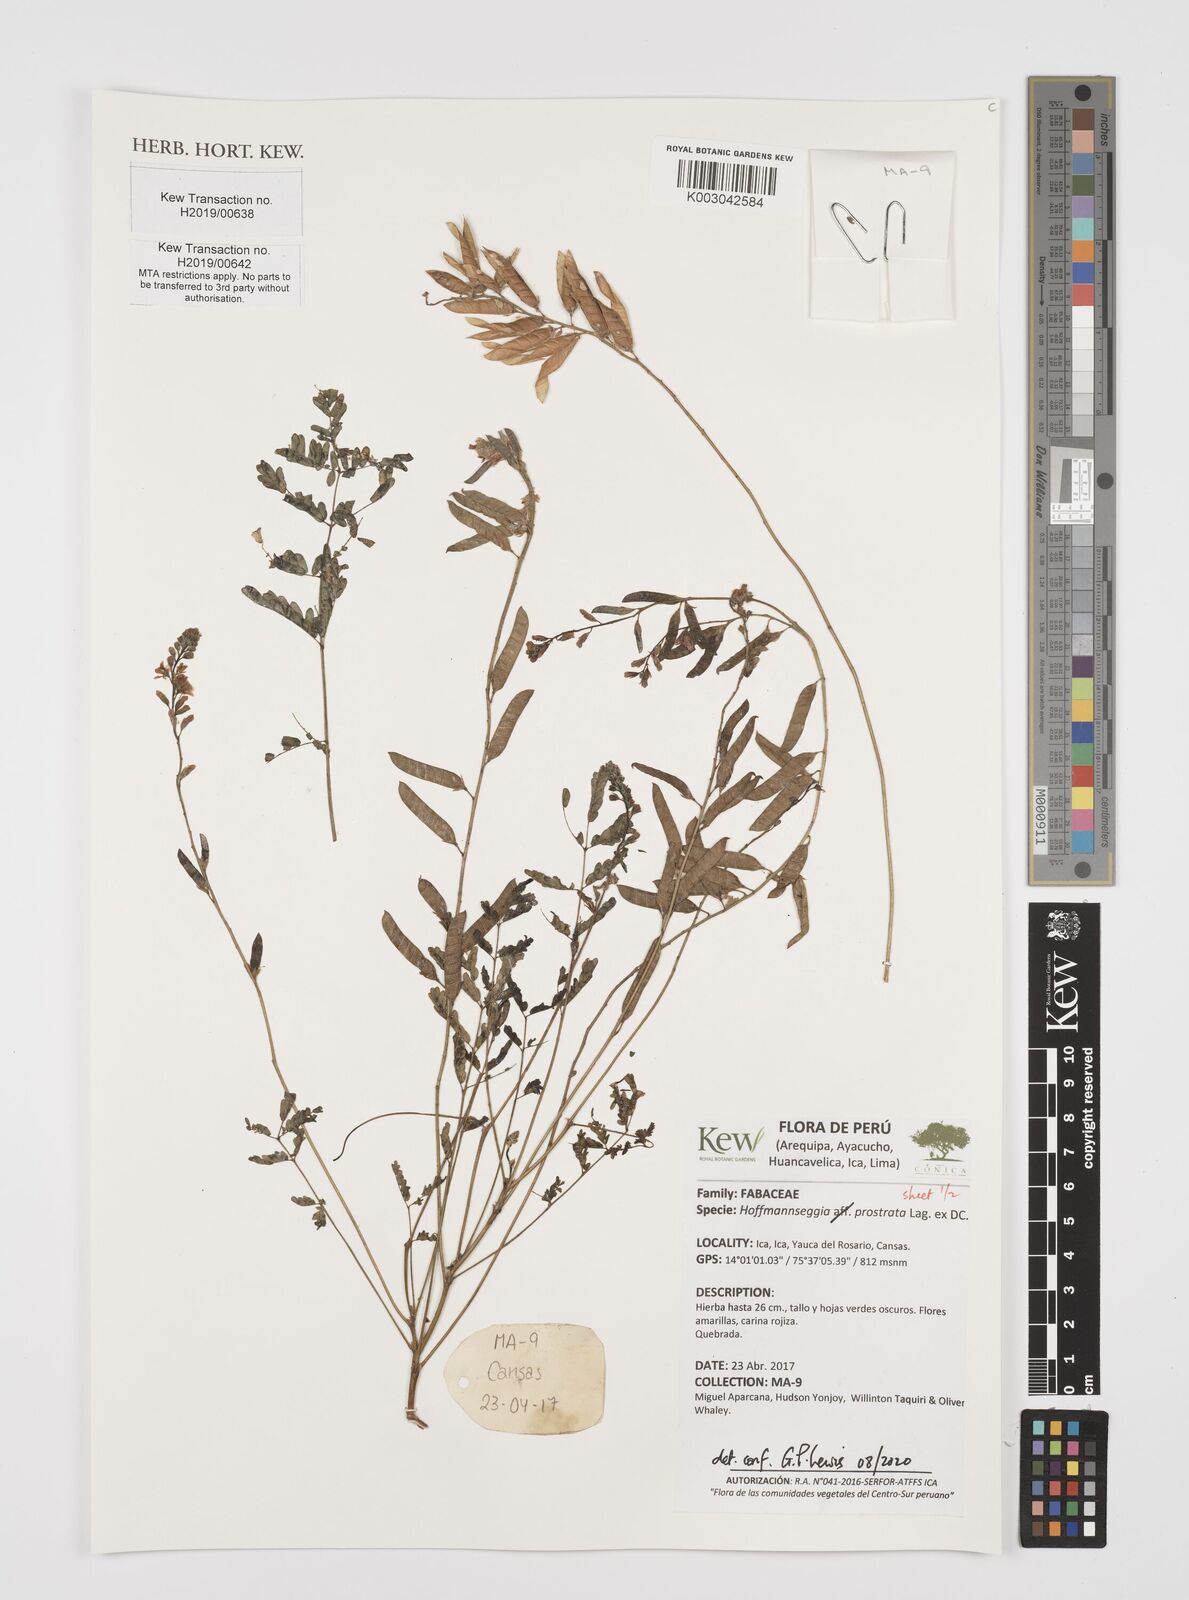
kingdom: Plantae
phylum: Tracheophyta
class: Magnoliopsida
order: Fabales
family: Fabaceae
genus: Hoffmannseggia
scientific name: Hoffmannseggia prostrata
